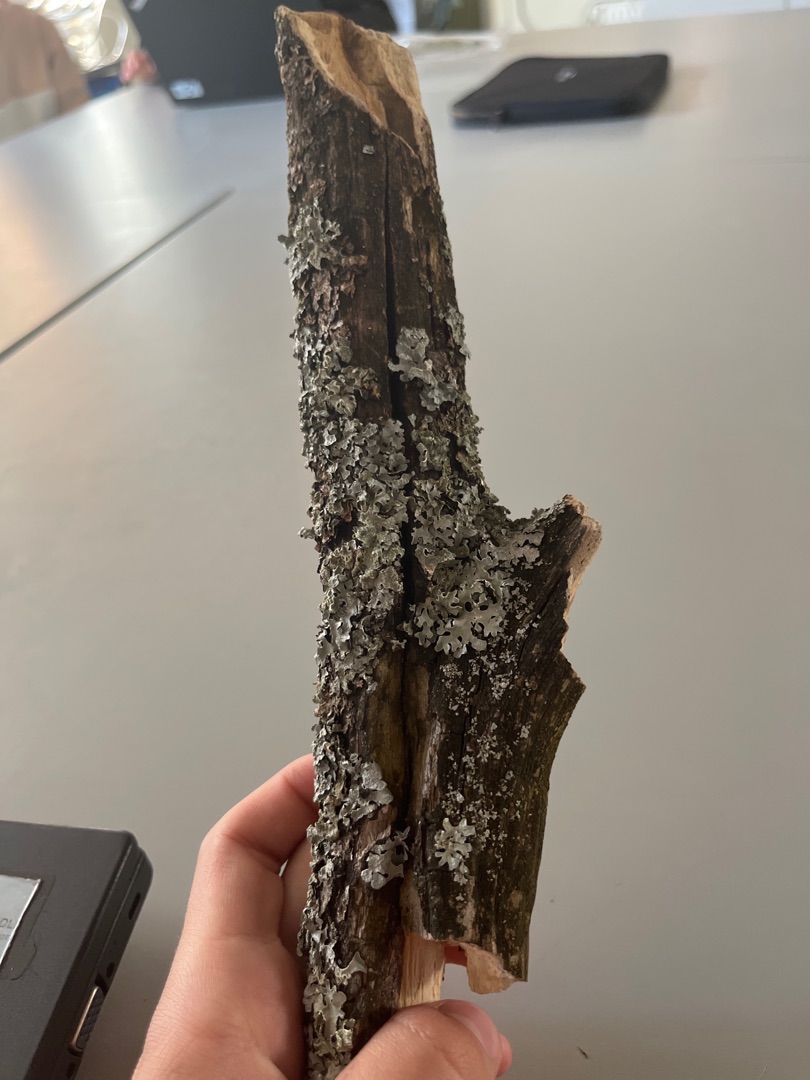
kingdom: Fungi
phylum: Ascomycota
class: Lecanoromycetes
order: Lecanorales
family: Parmeliaceae
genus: Parmelia
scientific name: Parmelia sulcata
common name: Rynket skållav
